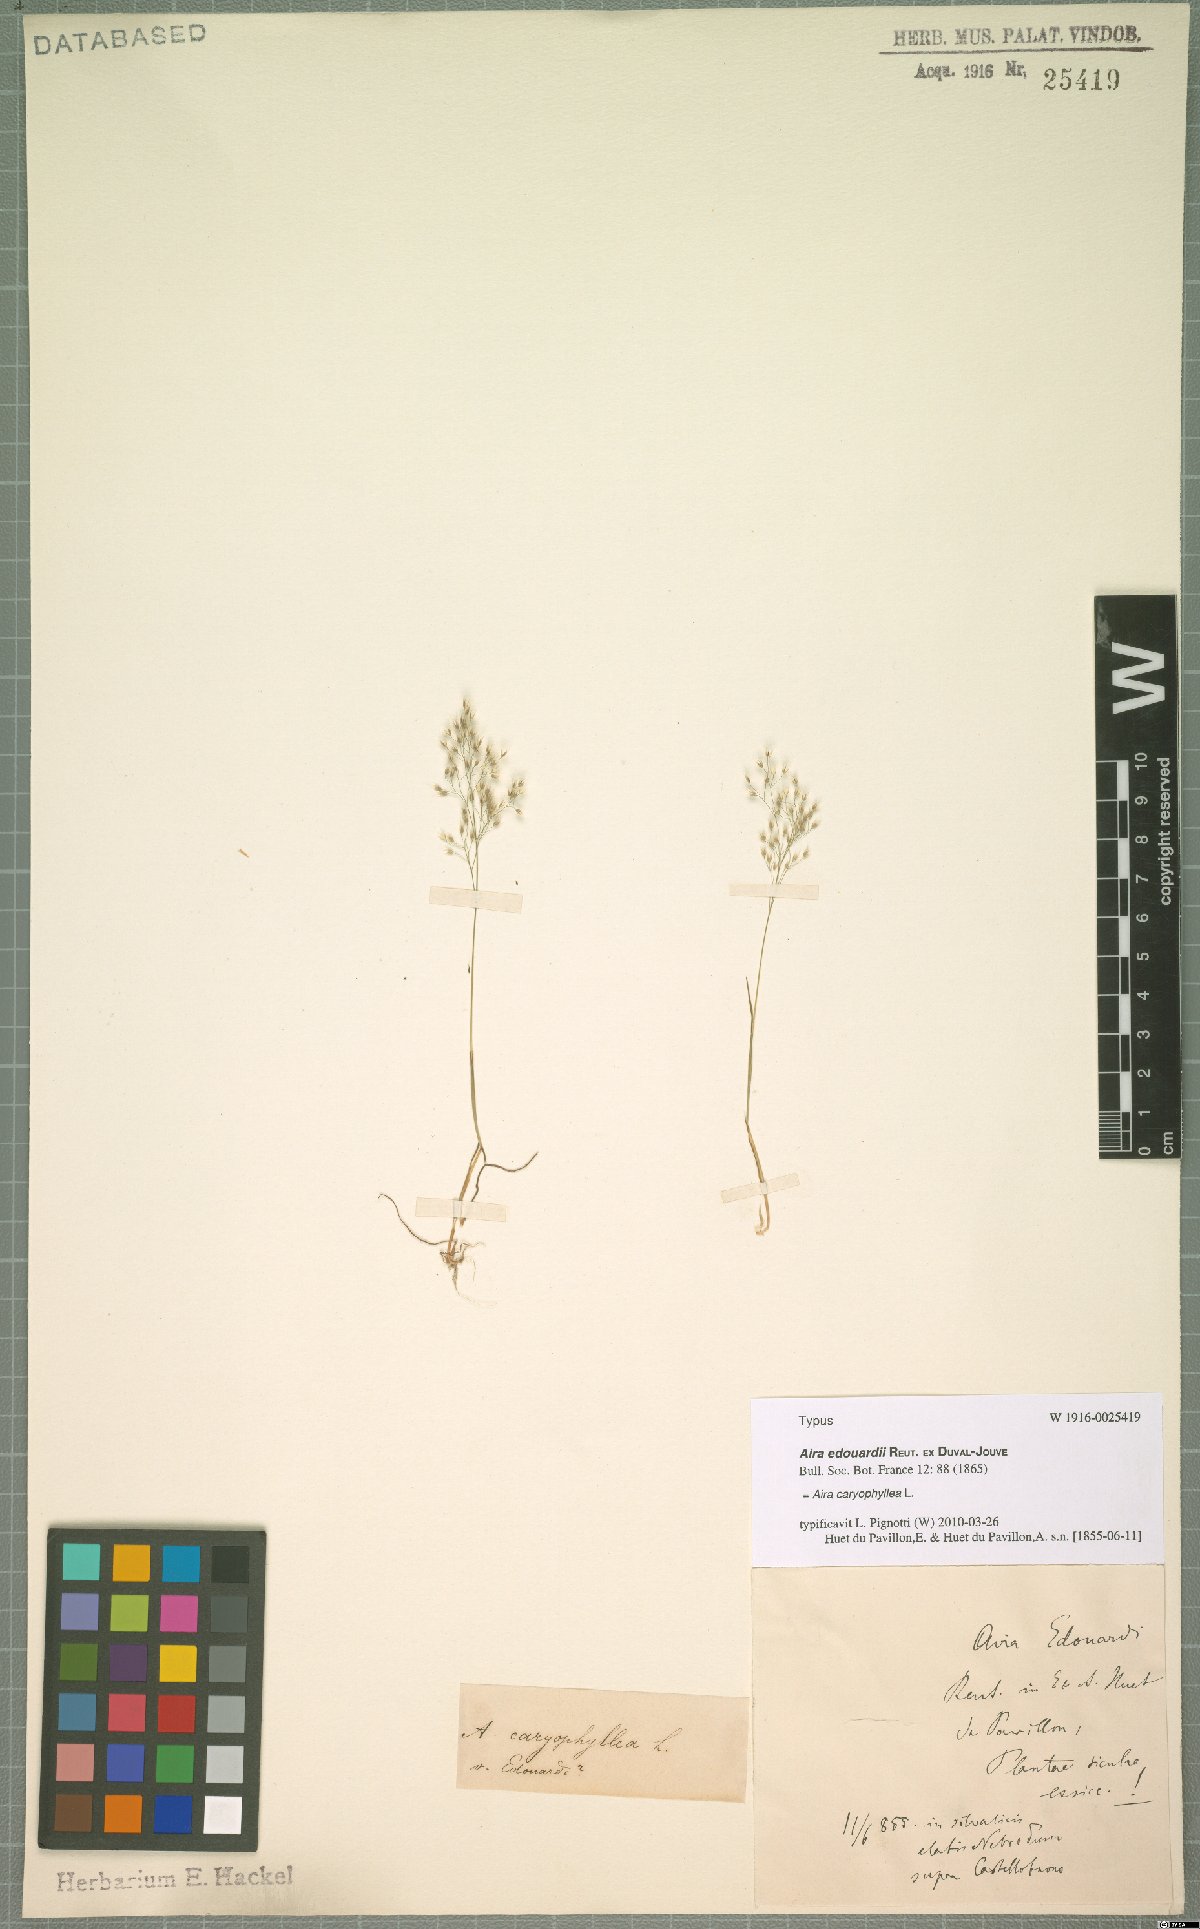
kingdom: Plantae
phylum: Tracheophyta
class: Liliopsida
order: Poales
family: Poaceae
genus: Aira
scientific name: Aira caryophyllea
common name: Silver hairgrass
